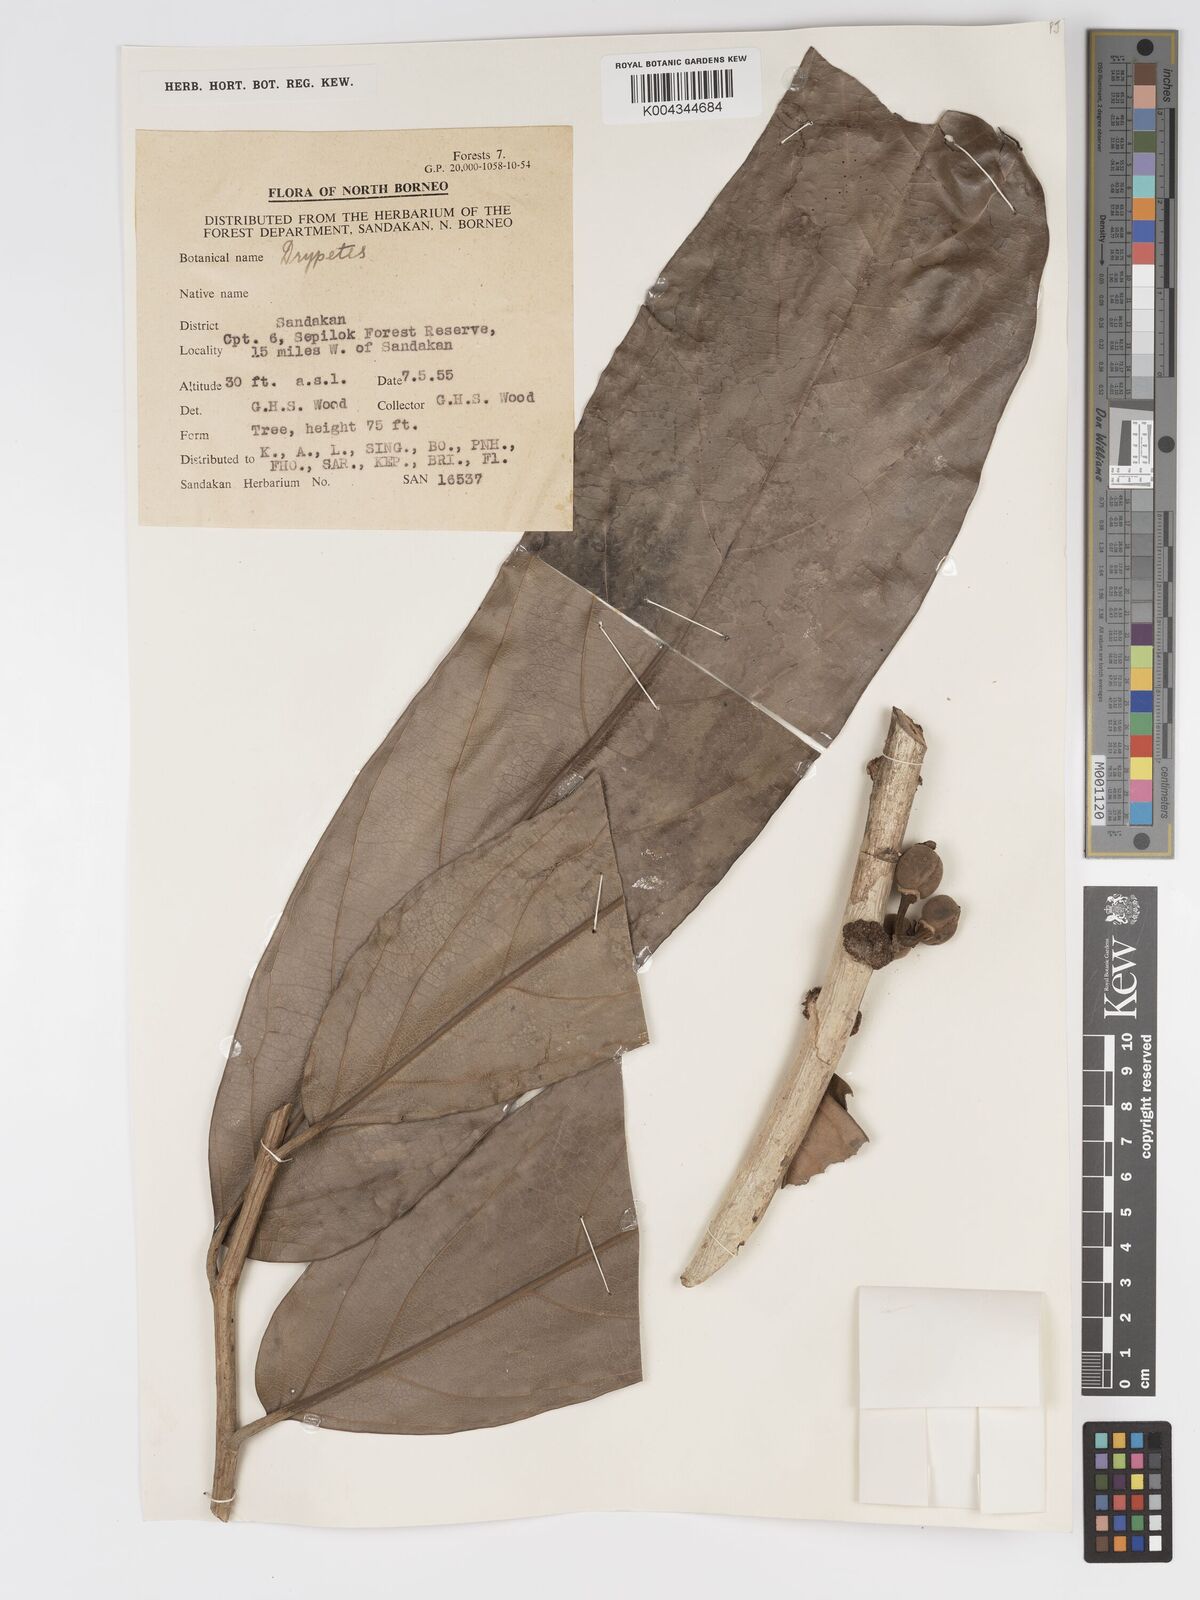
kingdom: Plantae
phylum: Tracheophyta
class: Magnoliopsida
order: Malpighiales
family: Putranjivaceae
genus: Drypetes
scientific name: Drypetes longifolia
